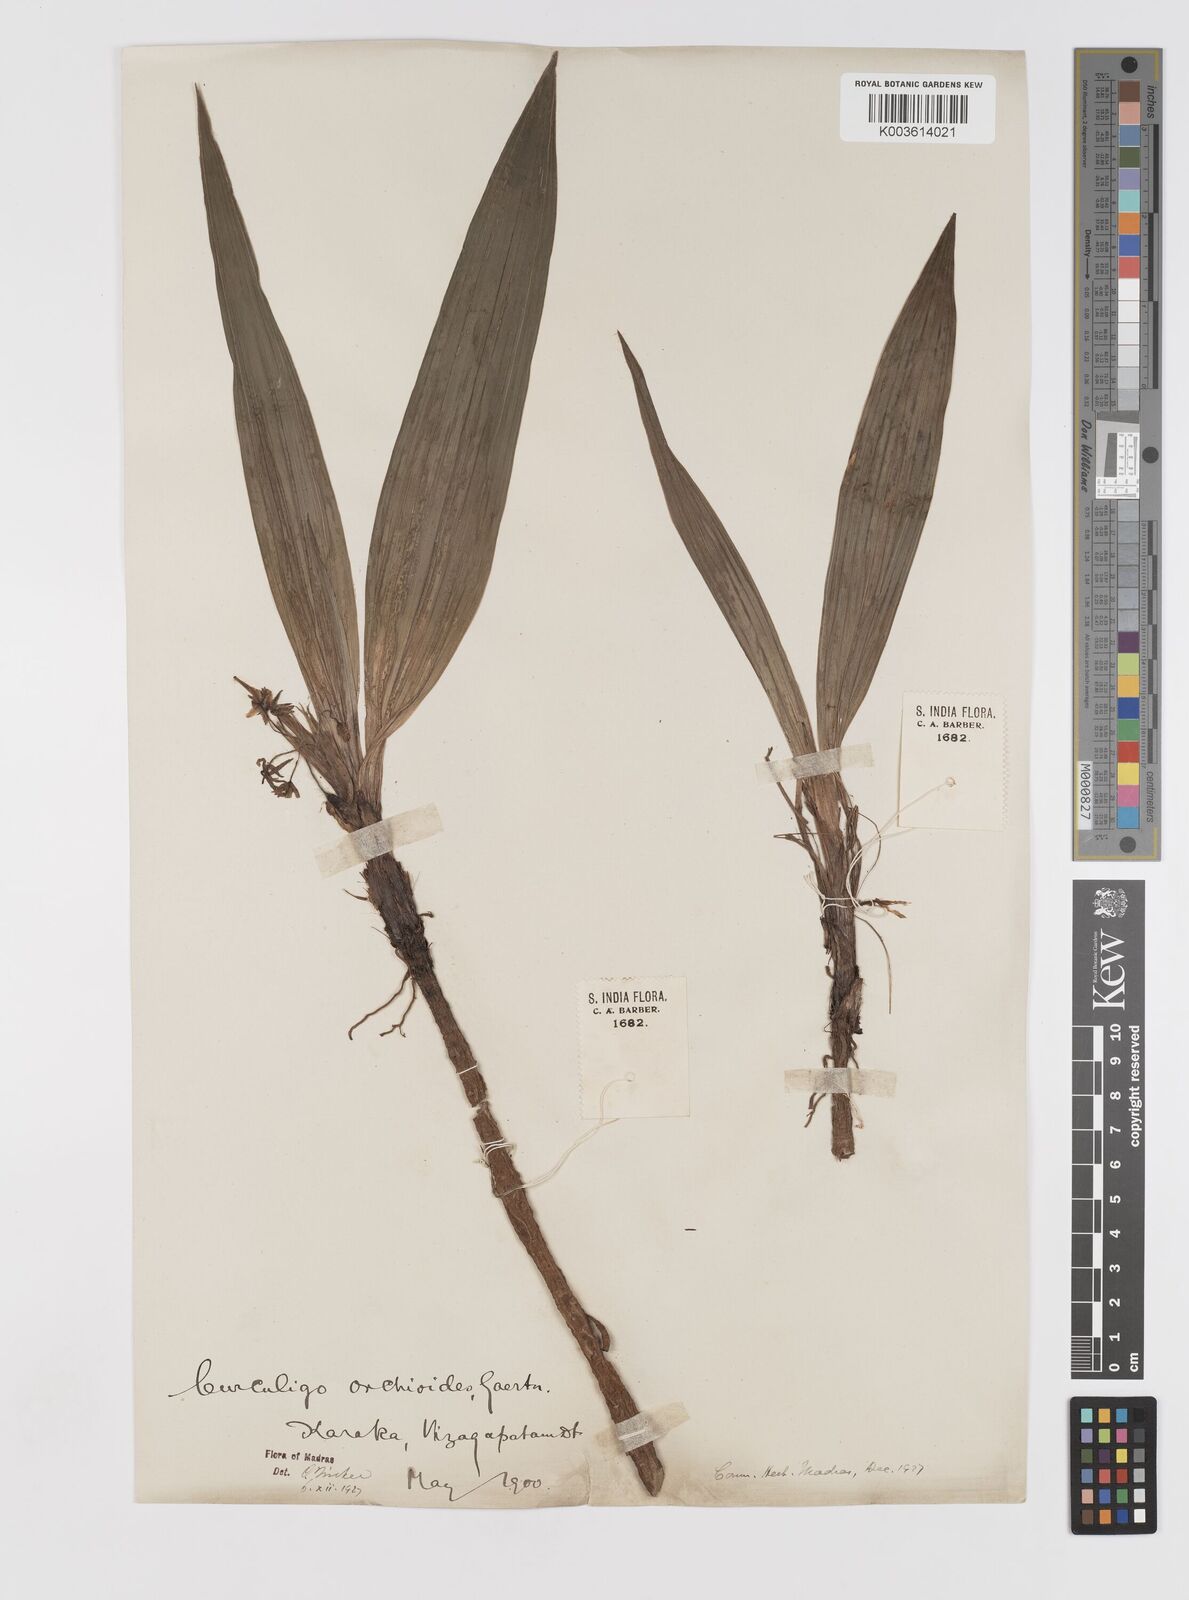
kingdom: Plantae
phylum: Tracheophyta
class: Liliopsida
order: Asparagales
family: Hypoxidaceae
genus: Curculigo
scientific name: Curculigo orchioides
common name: Golden eye-grass
